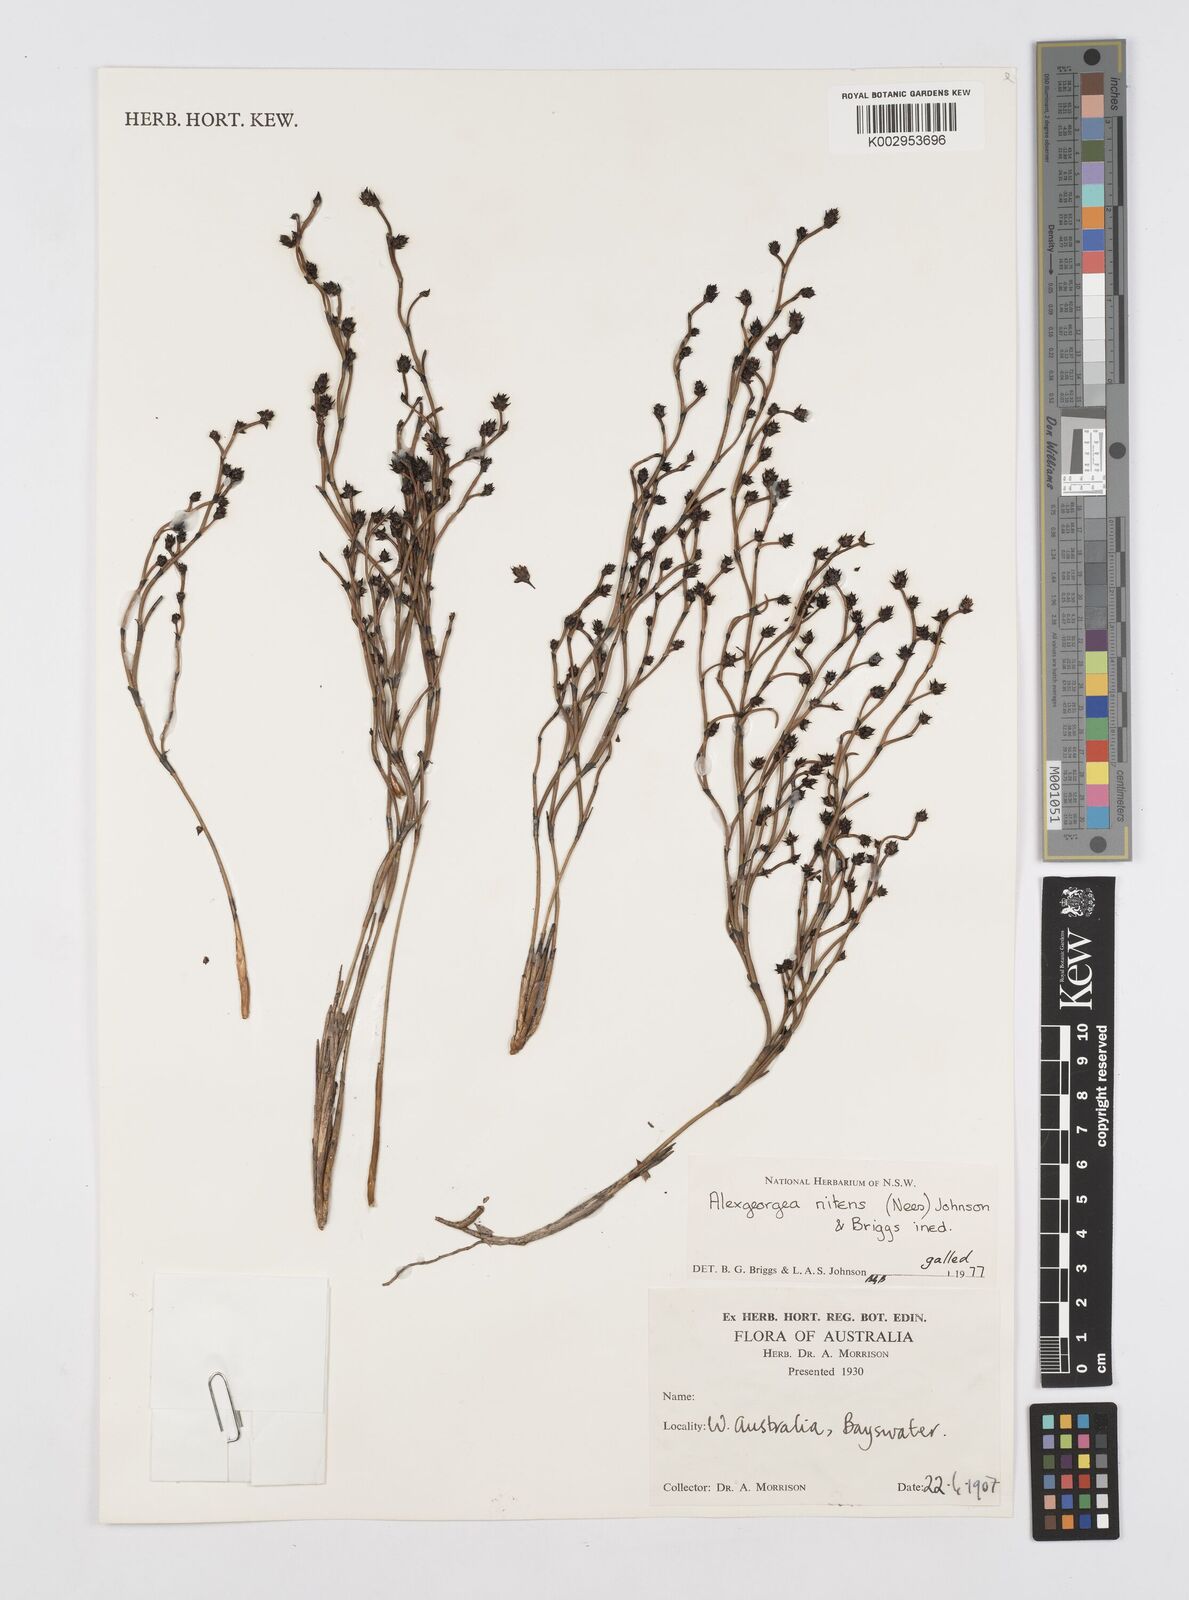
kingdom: Plantae
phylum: Tracheophyta
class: Liliopsida
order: Poales
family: Restionaceae
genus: Alexgeorgea
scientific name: Alexgeorgea nitens
